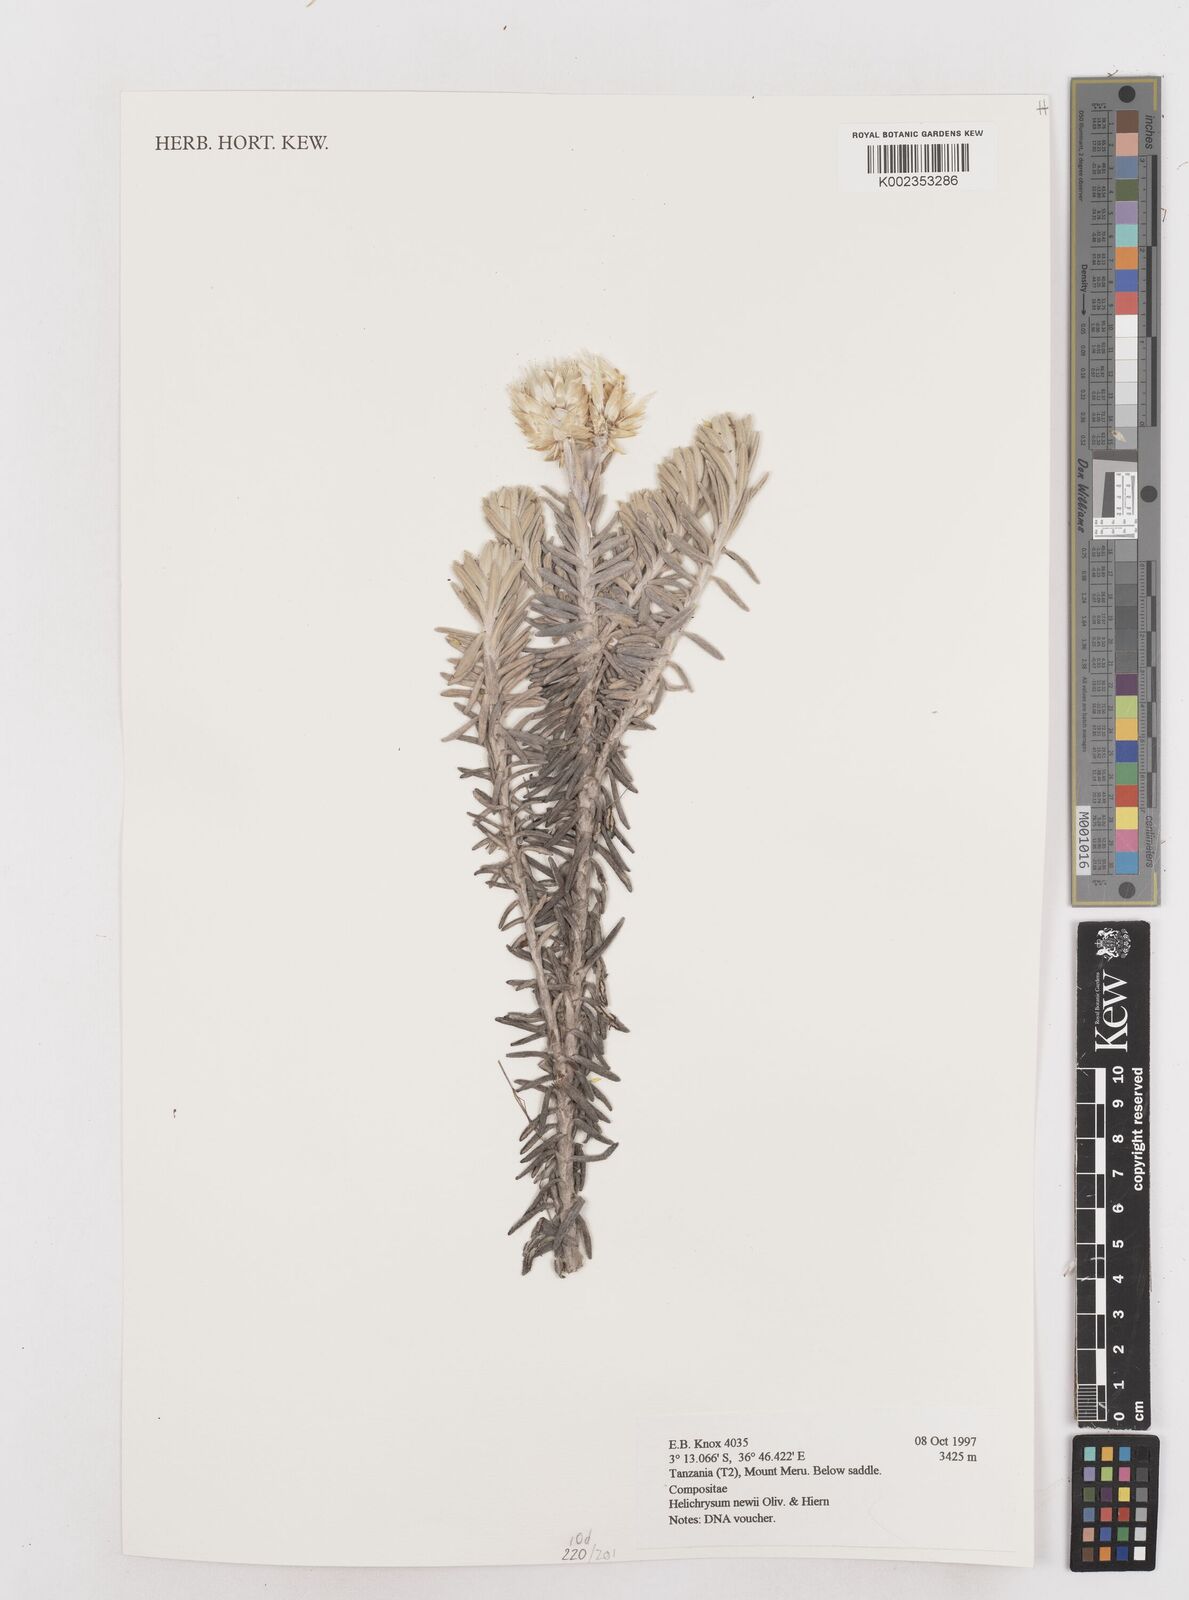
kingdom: Plantae
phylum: Tracheophyta
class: Magnoliopsida
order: Asterales
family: Asteraceae
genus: Helichrysum
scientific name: Helichrysum newii
